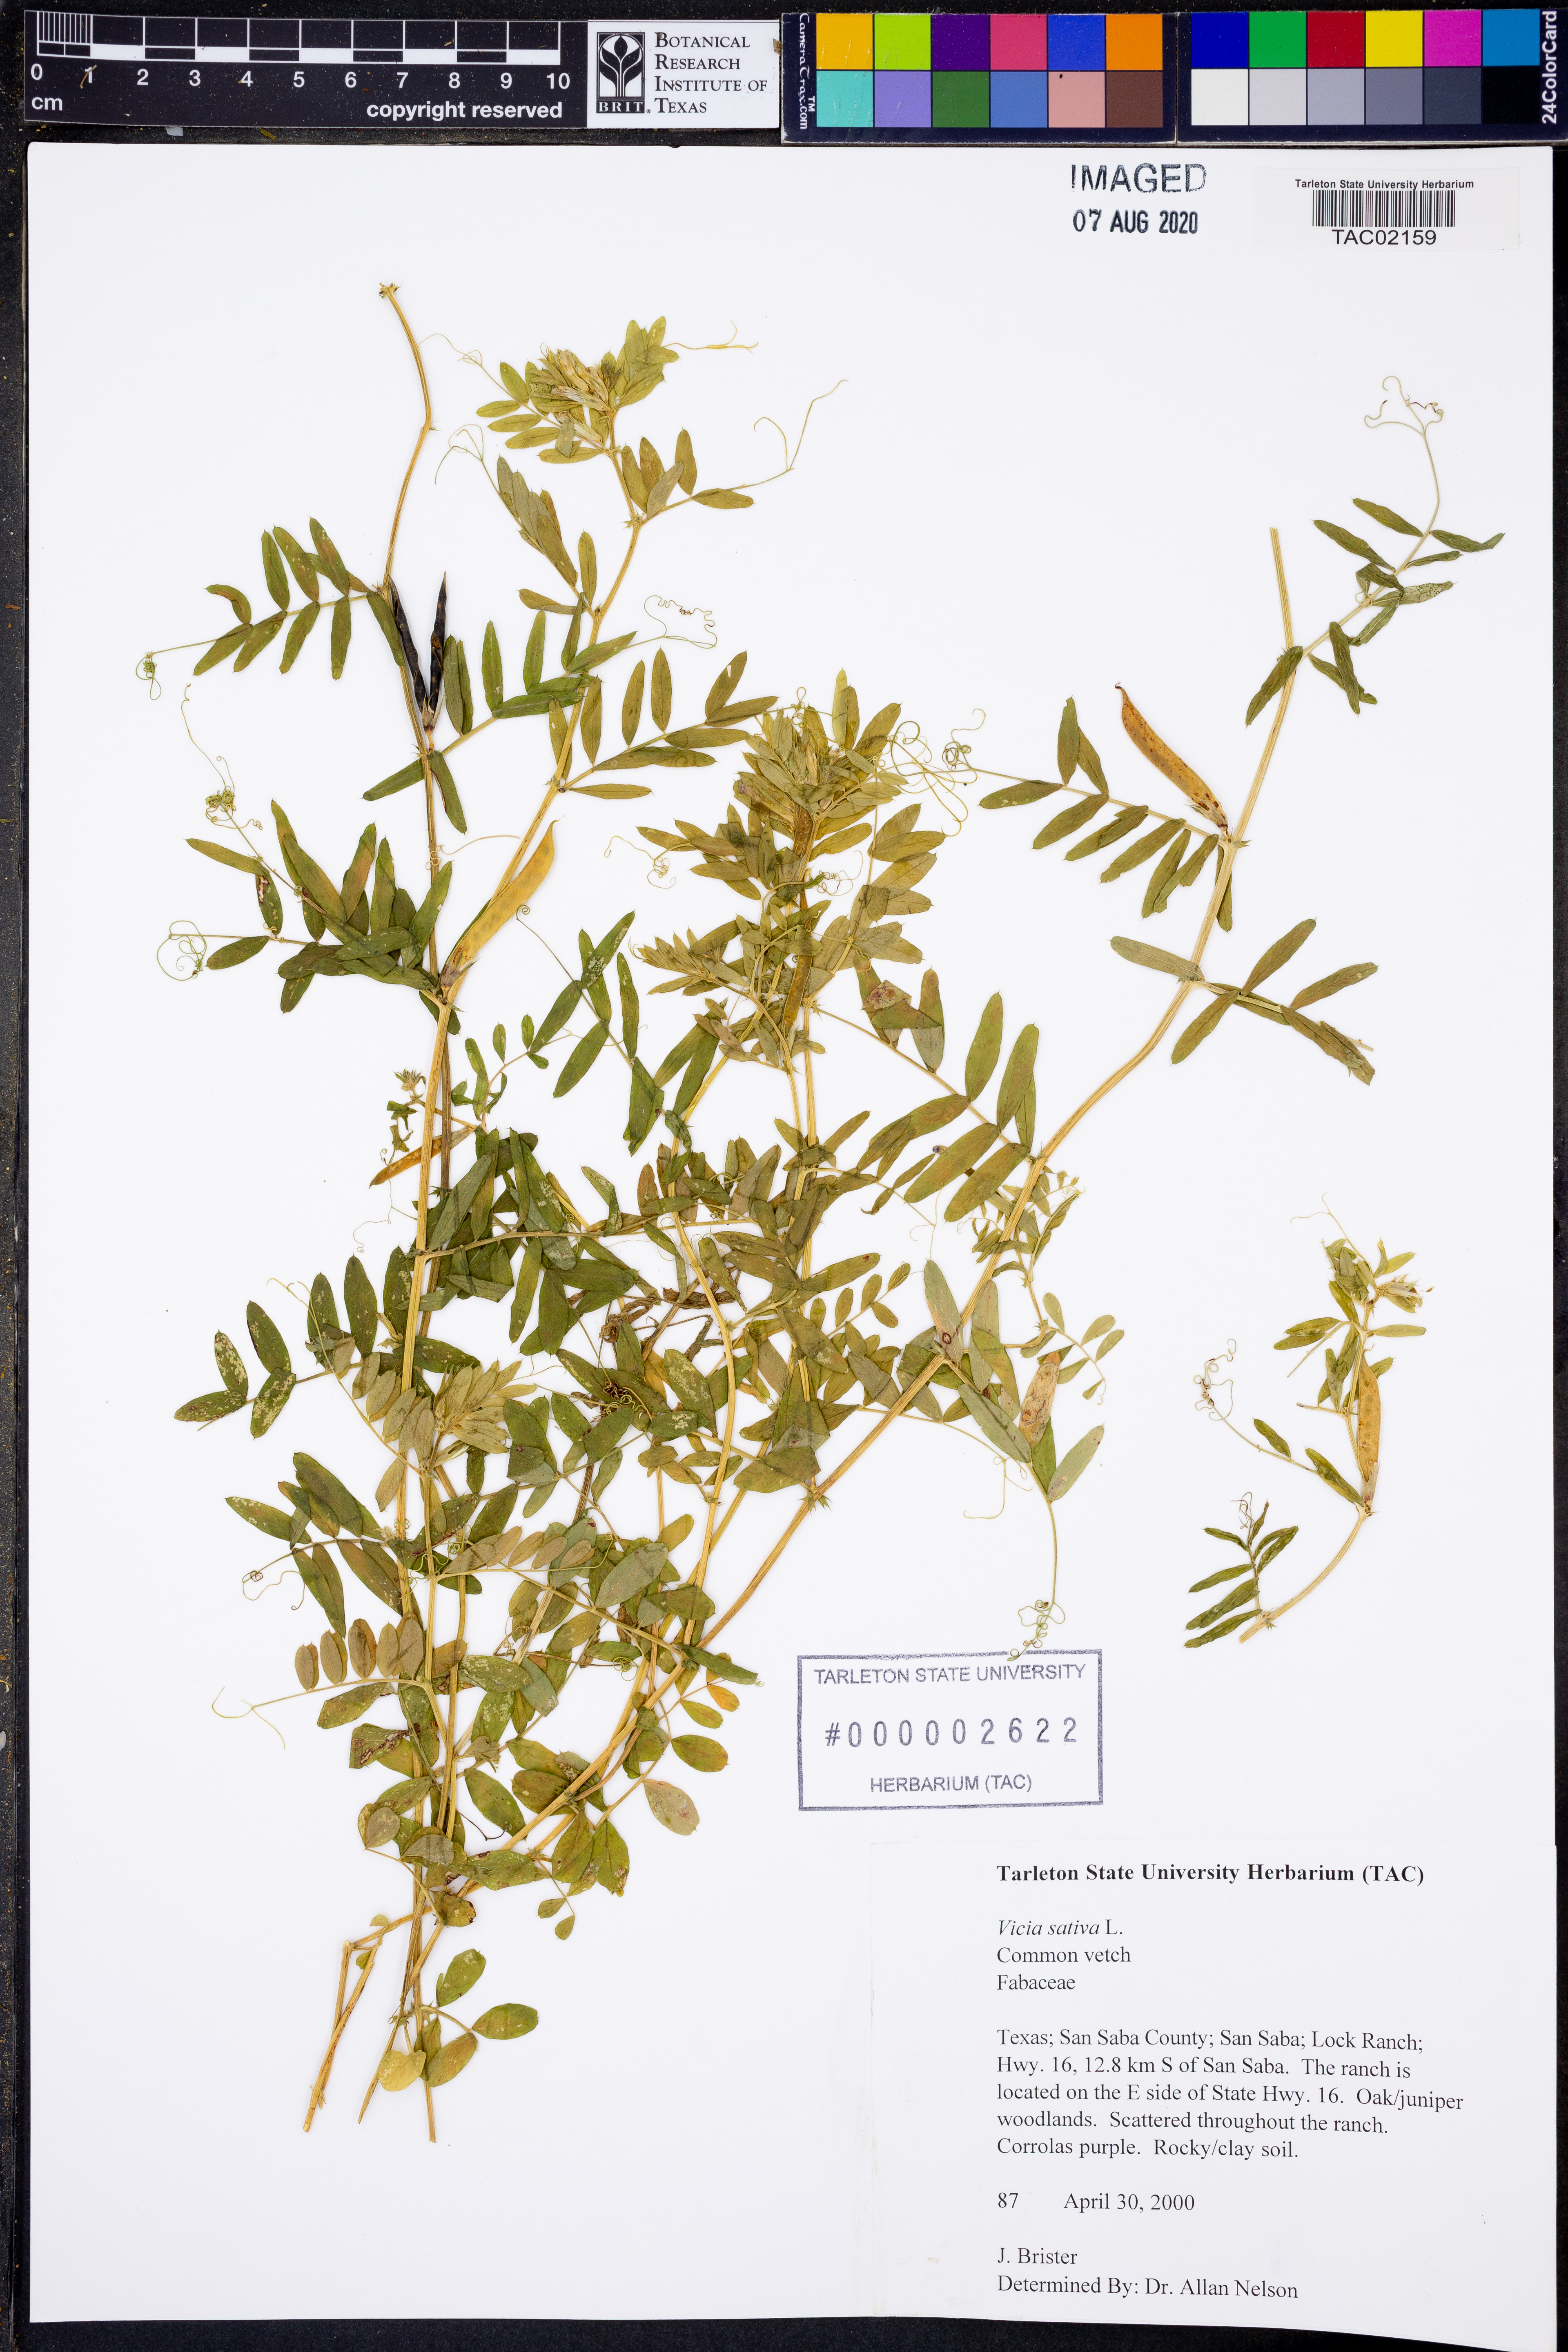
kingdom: Plantae
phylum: Tracheophyta
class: Magnoliopsida
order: Fabales
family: Fabaceae
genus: Vicia
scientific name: Vicia sativa
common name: Garden vetch
